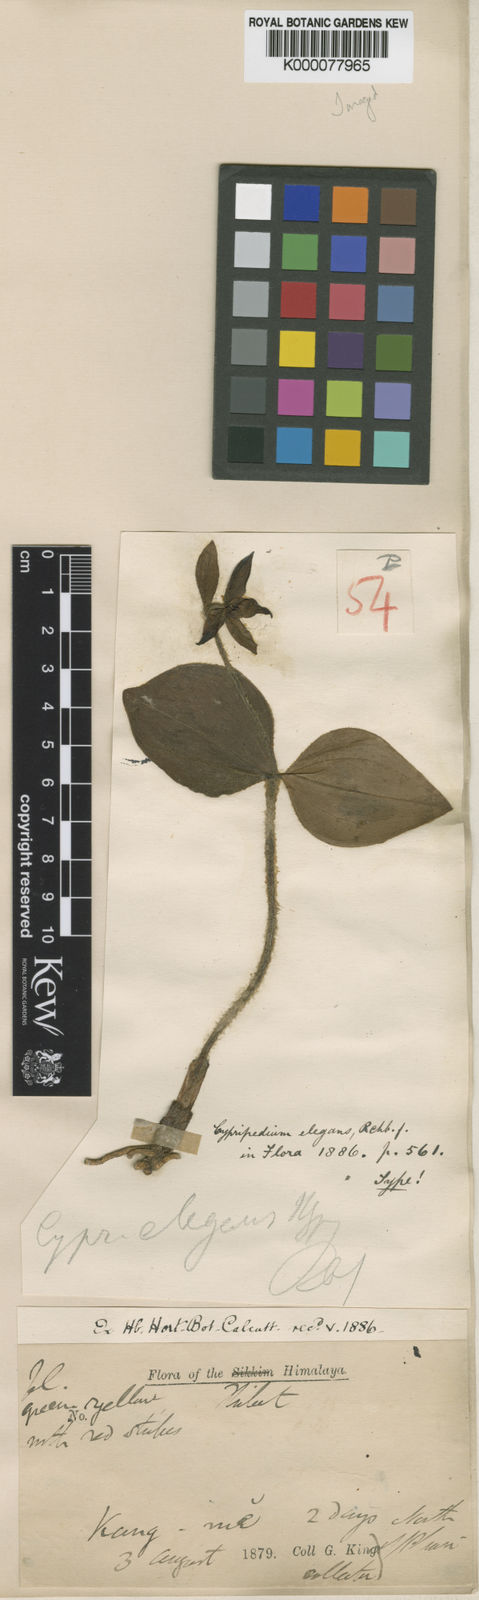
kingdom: Plantae
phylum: Tracheophyta
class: Liliopsida
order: Asparagales
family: Orchidaceae
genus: Cypripedium
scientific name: Cypripedium elegans
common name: Elegant cypripedium
